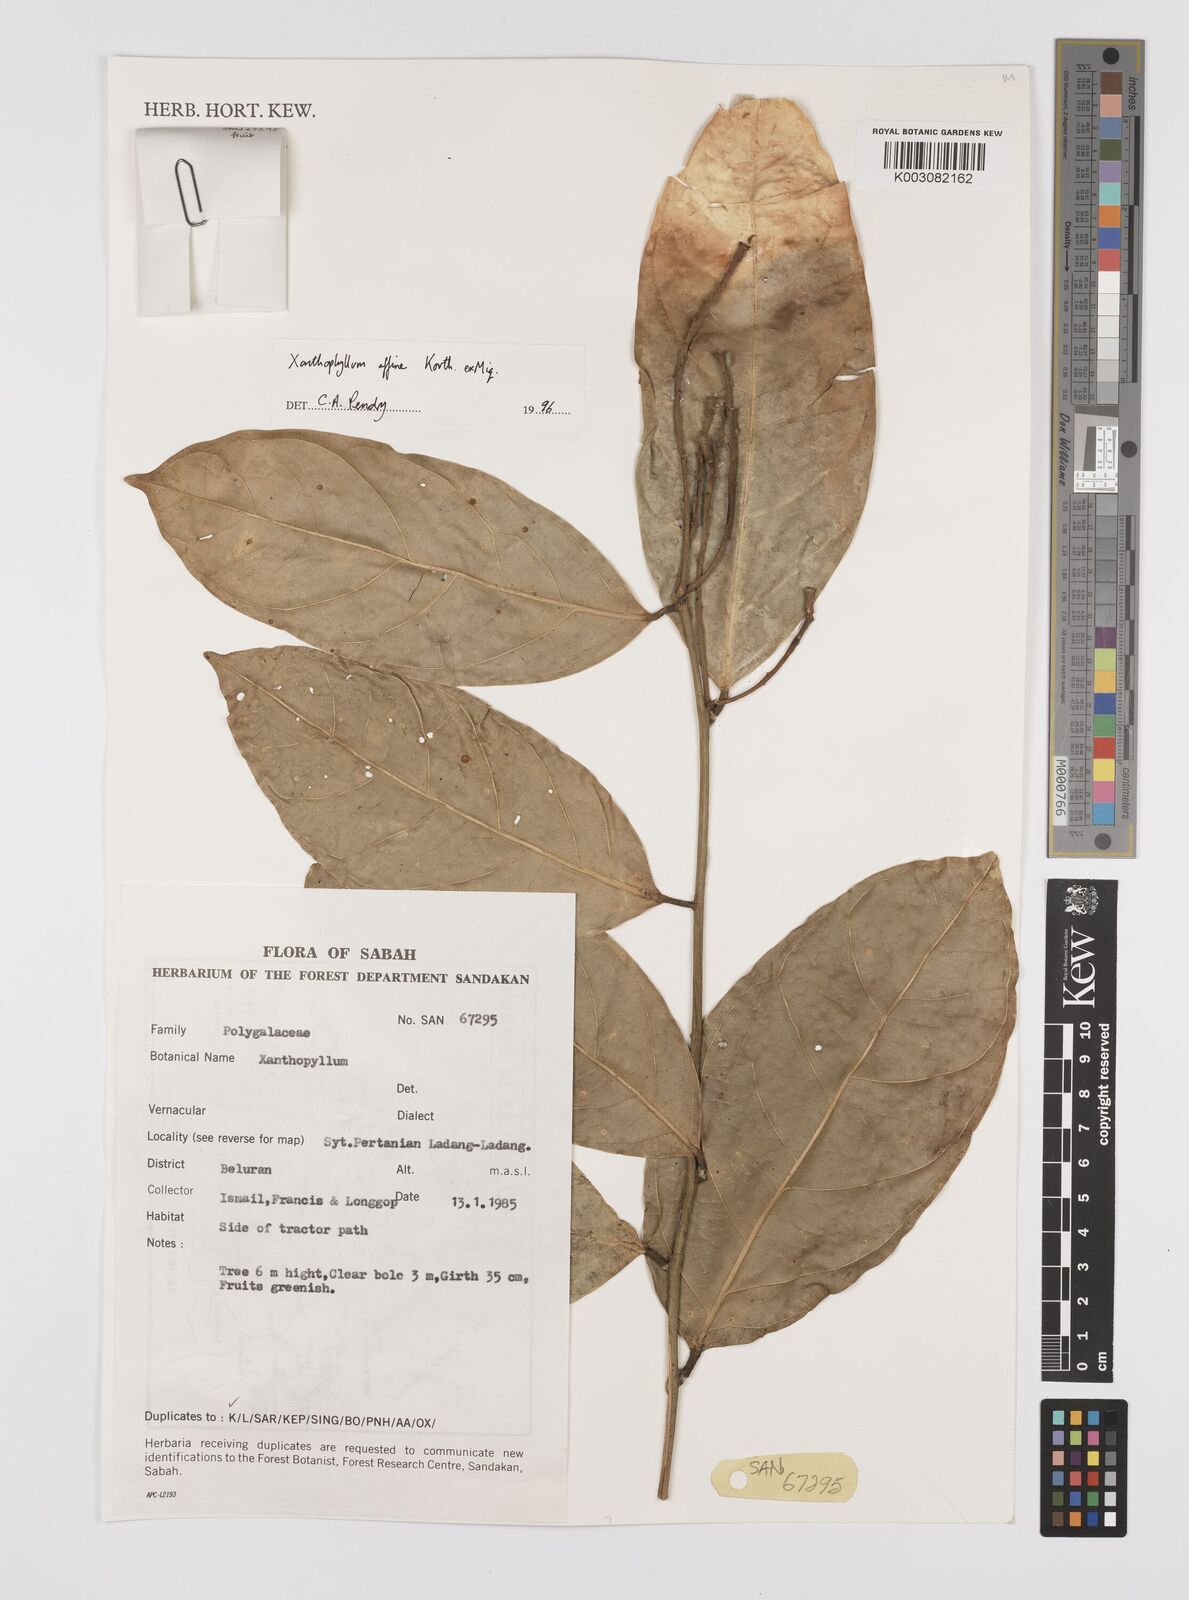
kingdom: Plantae
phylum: Tracheophyta
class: Magnoliopsida
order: Fabales
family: Polygalaceae
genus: Xanthophyllum
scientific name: Xanthophyllum flavescens
